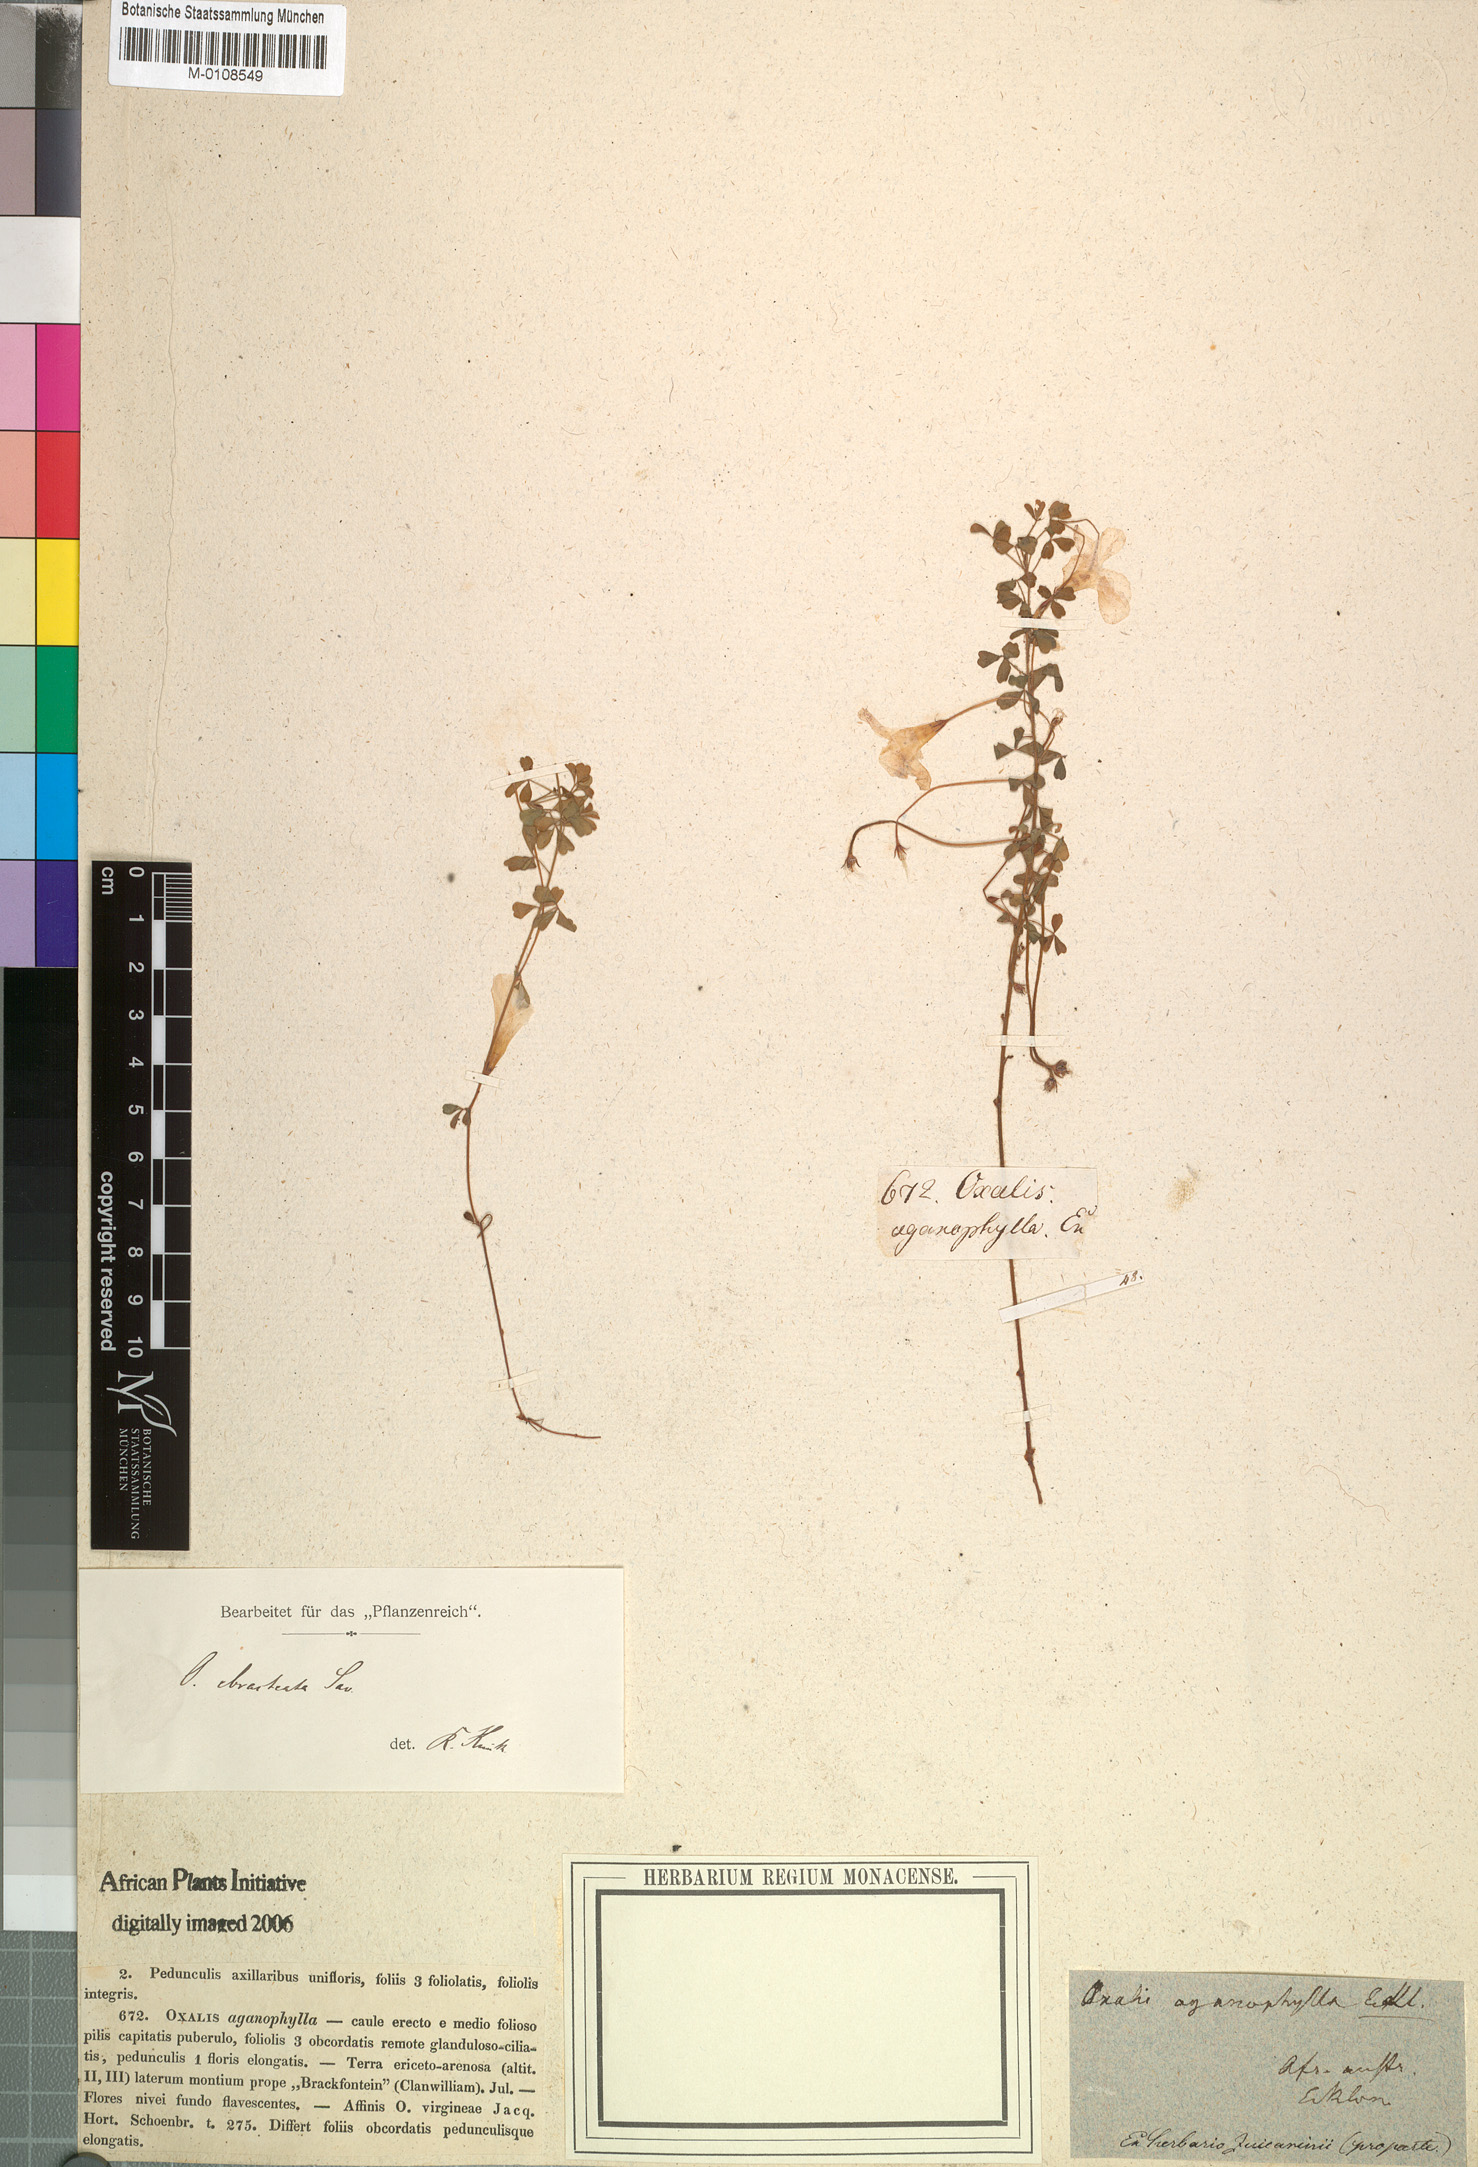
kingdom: Plantae
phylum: Tracheophyta
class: Magnoliopsida
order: Oxalidales
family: Oxalidaceae
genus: Oxalis
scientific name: Oxalis ebracteata
